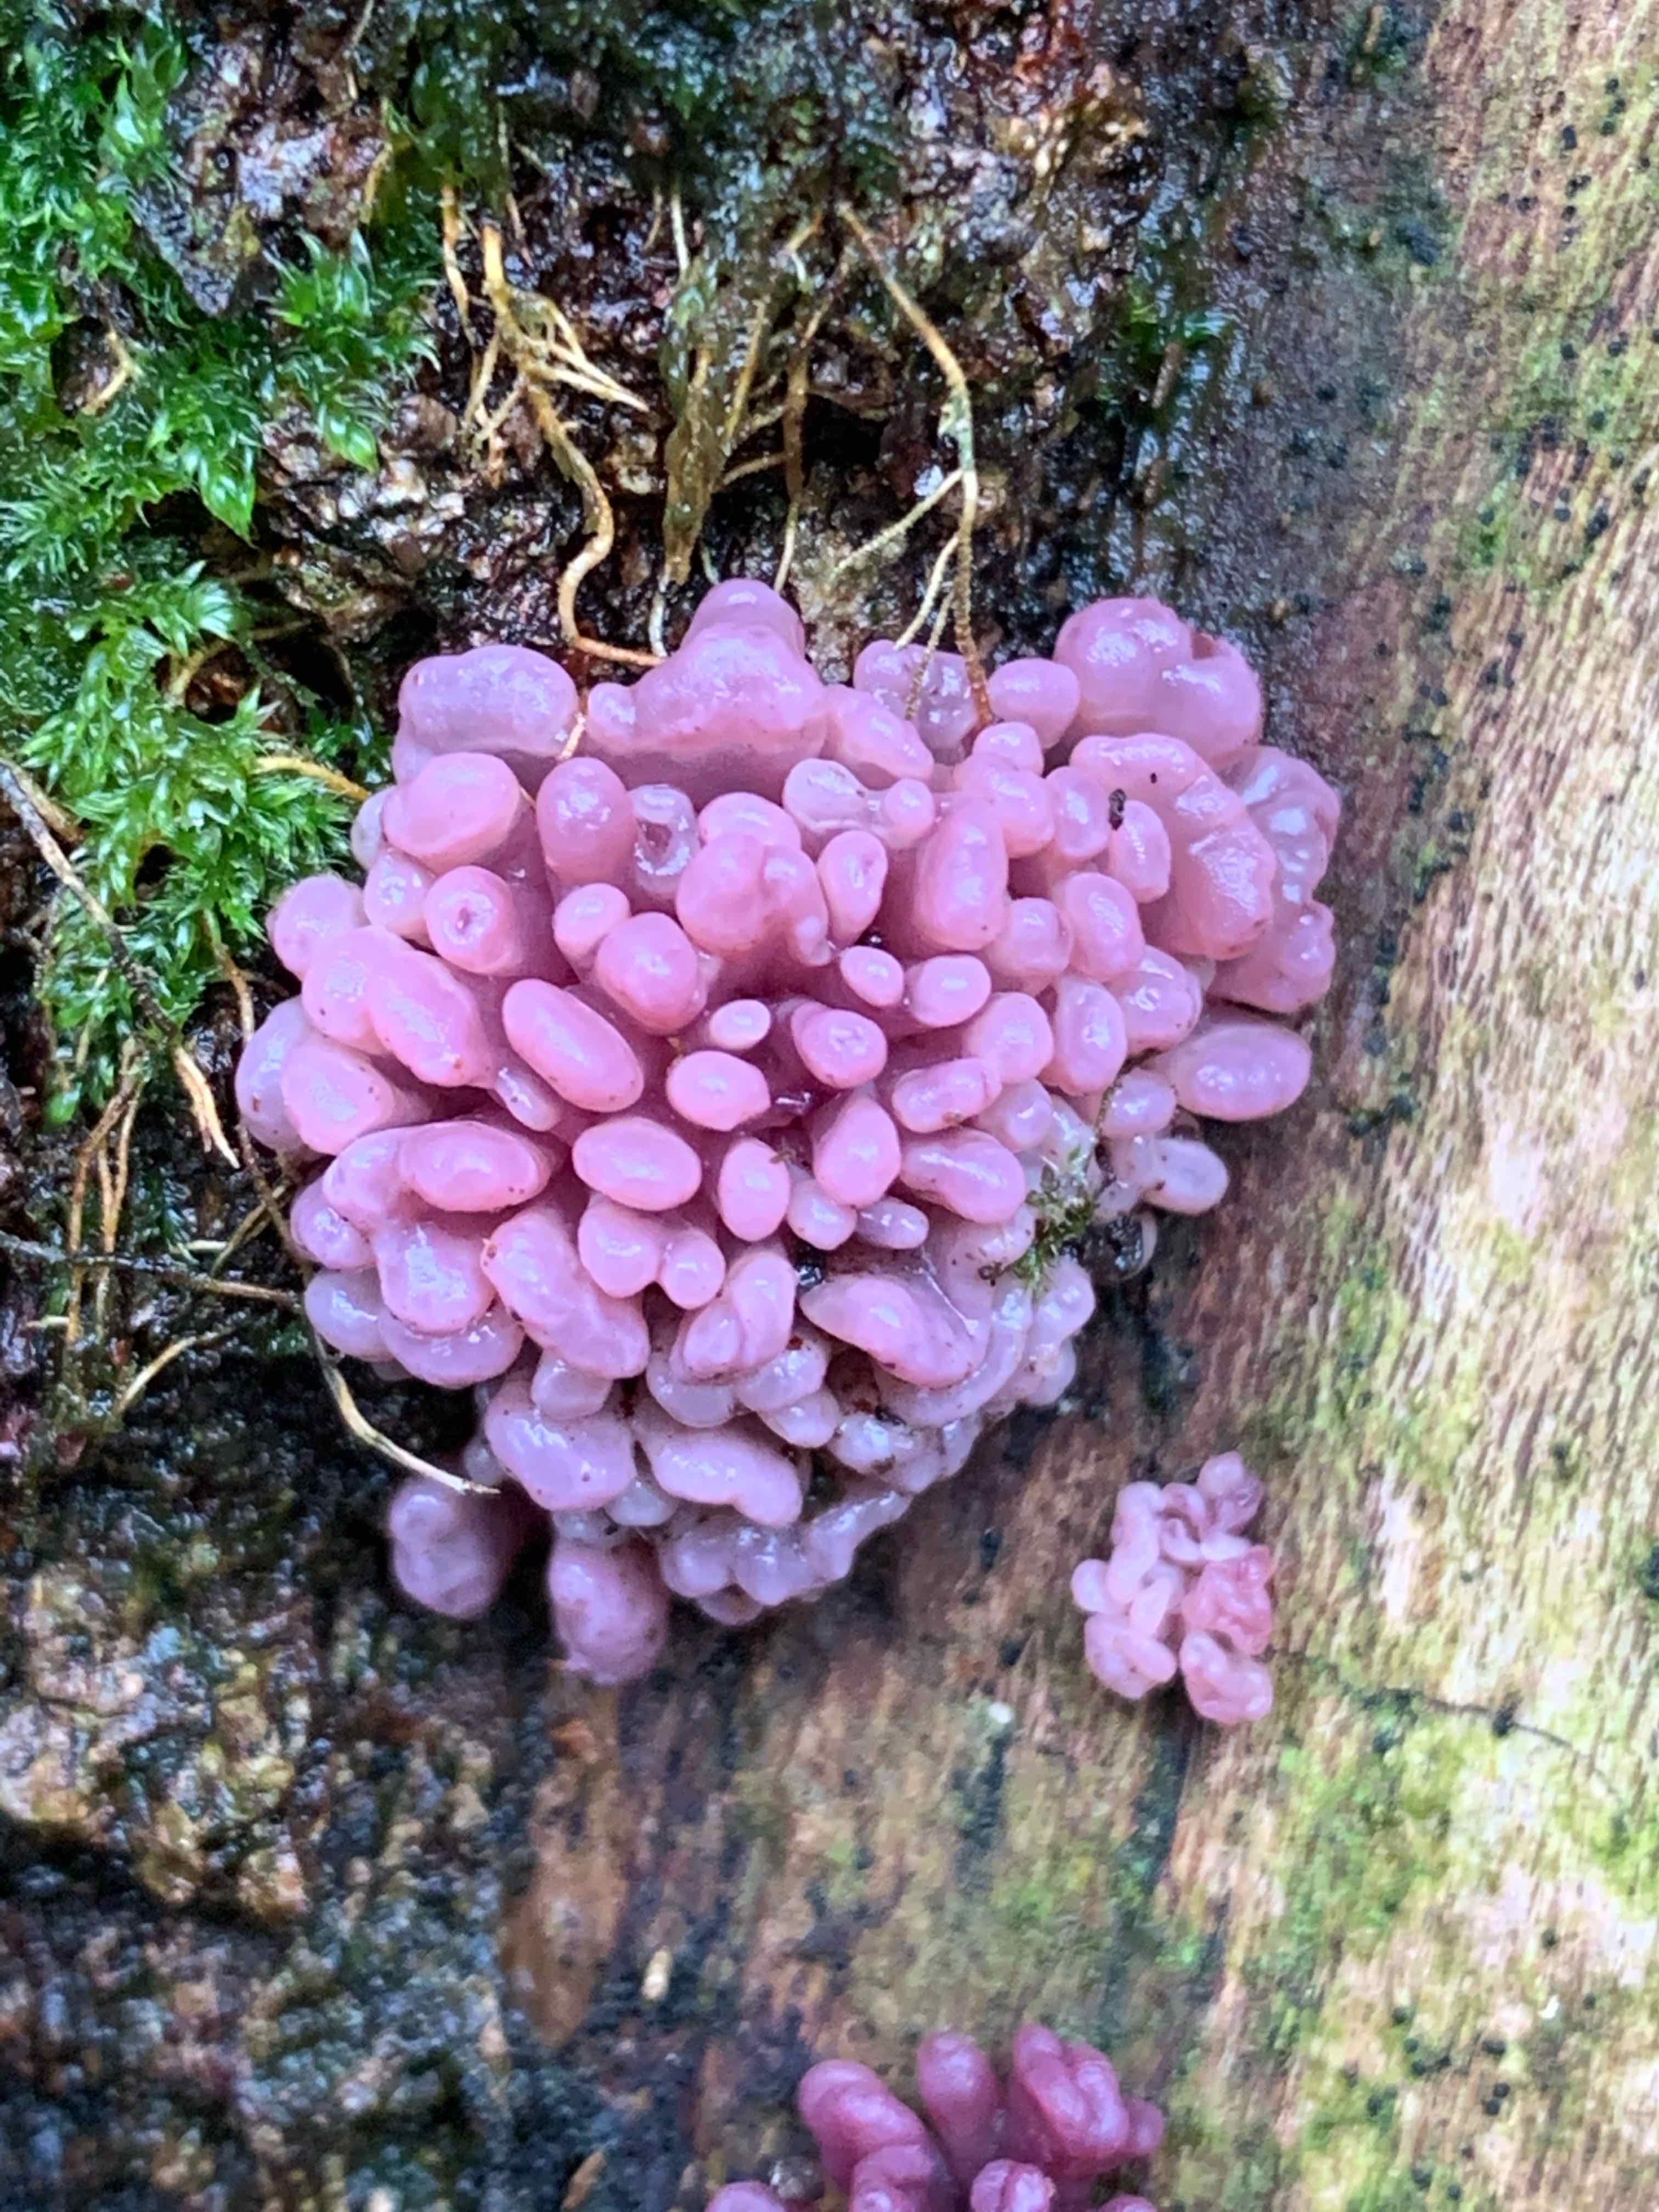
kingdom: Fungi
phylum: Ascomycota
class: Leotiomycetes
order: Helotiales
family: Gelatinodiscaceae
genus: Ascocoryne
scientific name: Ascocoryne sarcoides
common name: rødlilla sejskive
